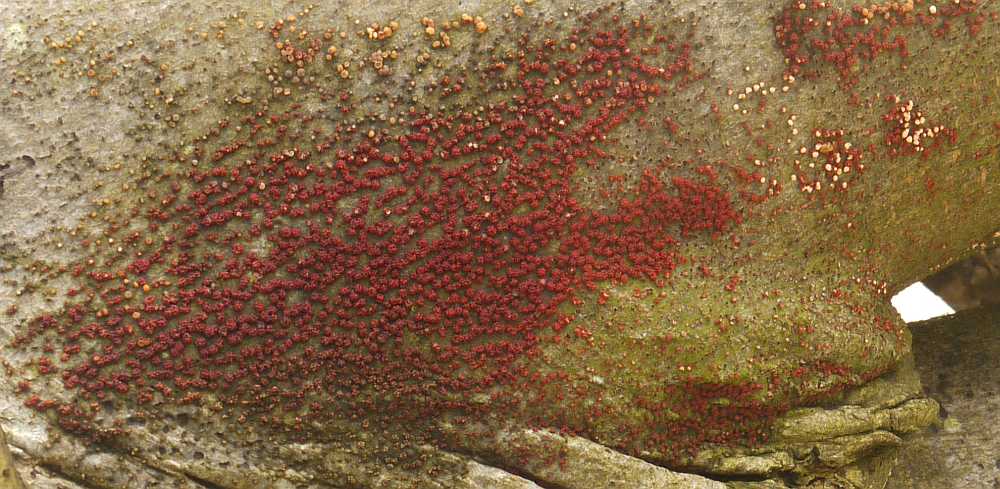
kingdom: Fungi
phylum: Ascomycota
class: Sordariomycetes
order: Hypocreales
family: Nectriaceae
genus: Nectria
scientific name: Nectria cinnabarina
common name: almindelig cinnobersvamp
